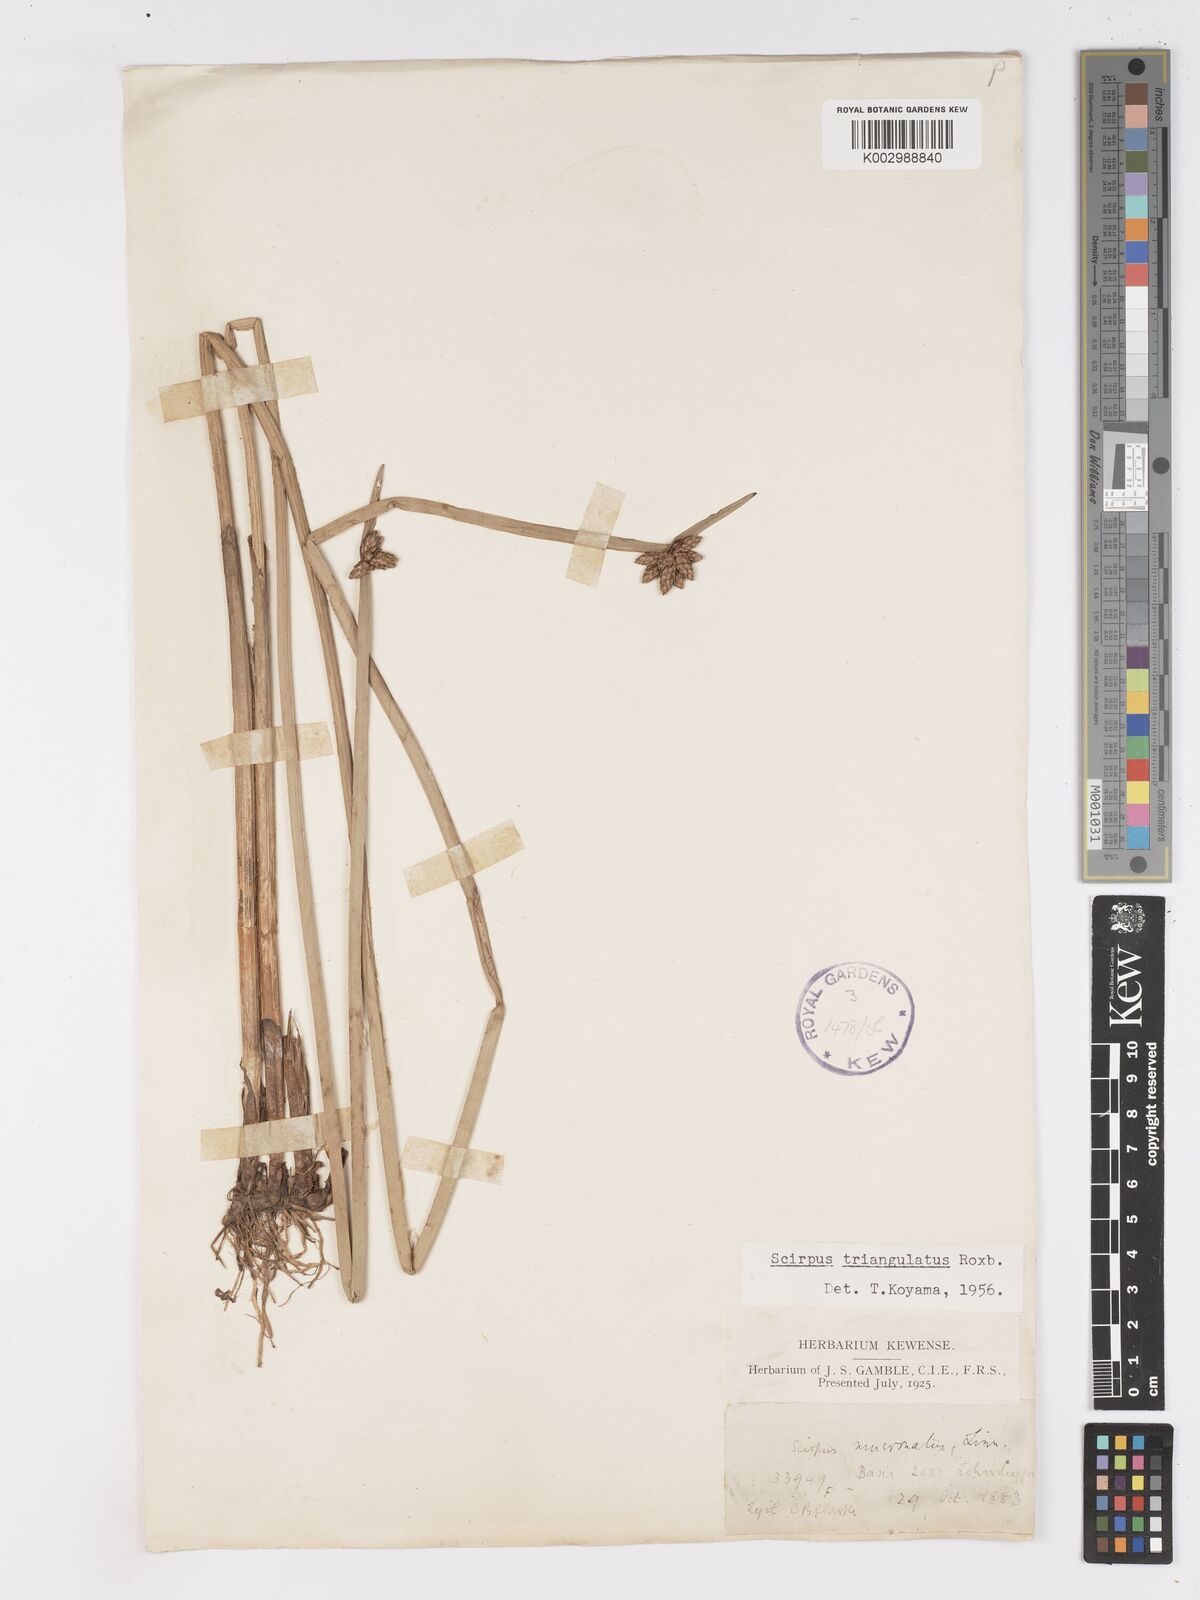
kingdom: Plantae
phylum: Tracheophyta
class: Liliopsida
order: Poales
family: Cyperaceae
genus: Schoenoplectiella
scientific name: Schoenoplectiella mucronata
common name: Bog bulrush
